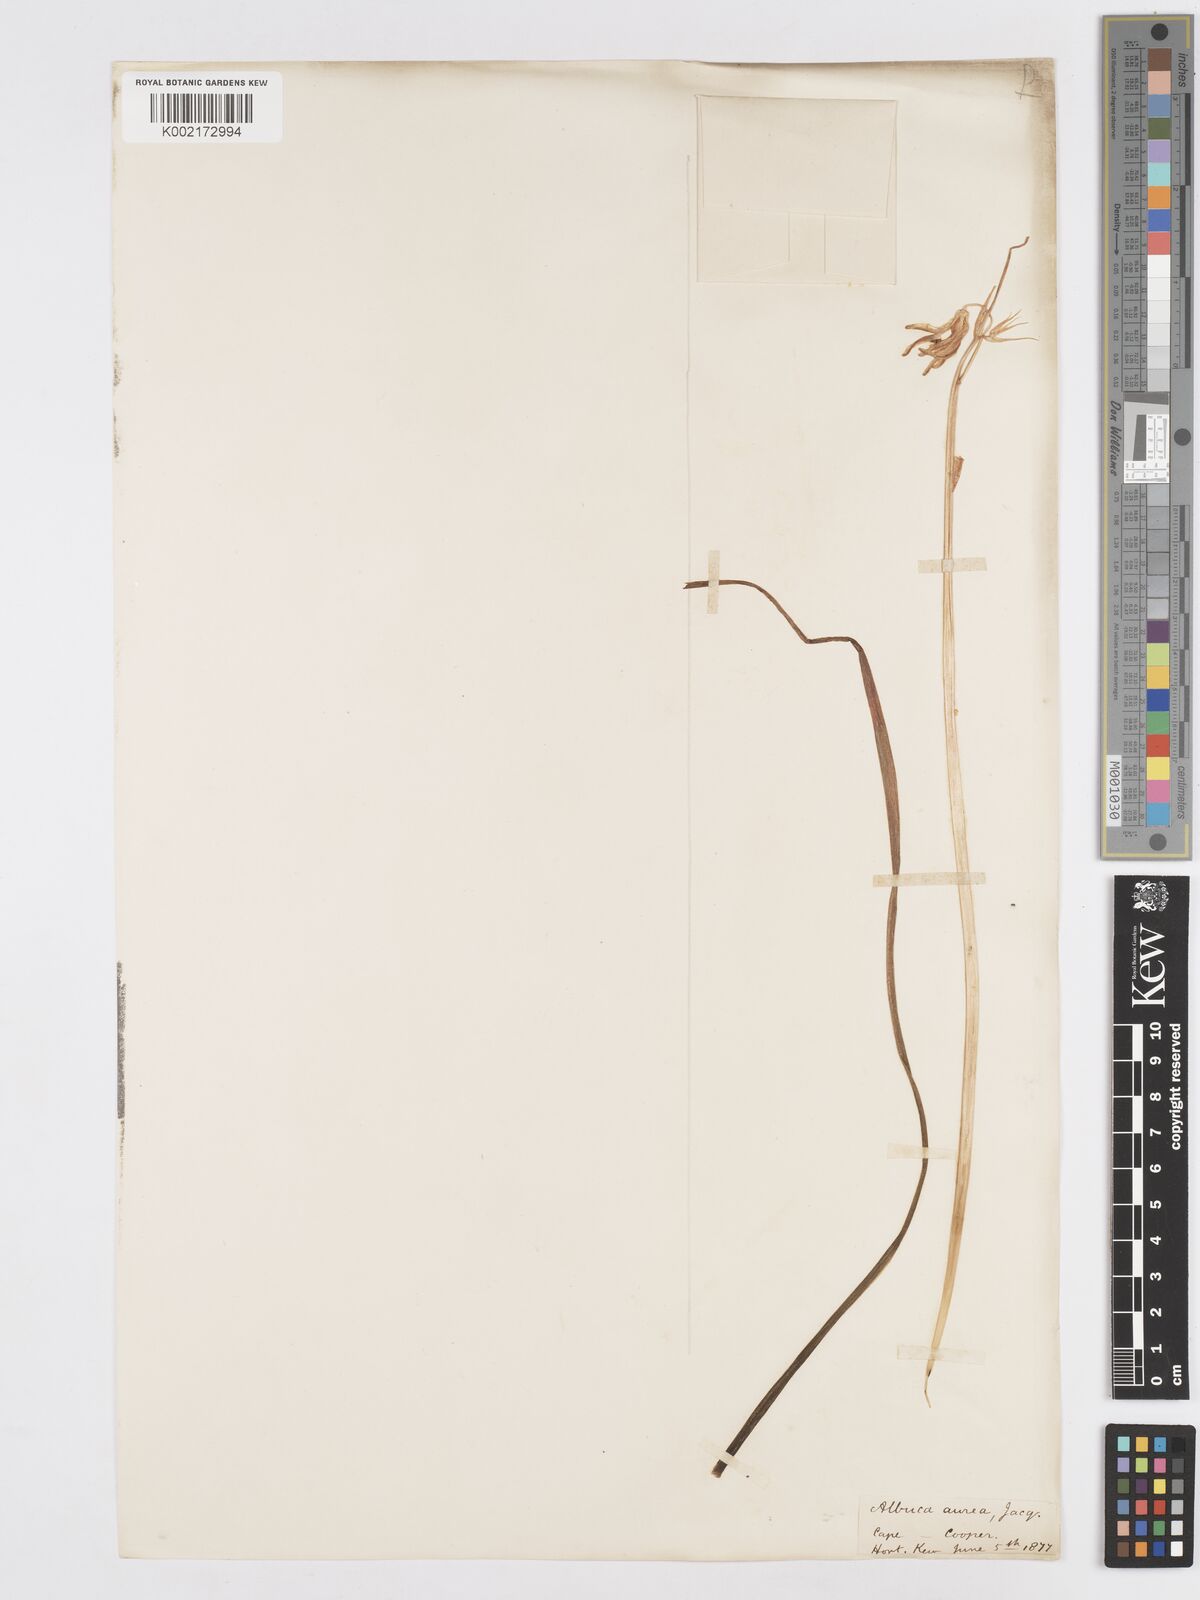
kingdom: Plantae
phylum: Tracheophyta
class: Liliopsida
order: Asparagales
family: Asparagaceae
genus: Albuca
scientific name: Albuca aurea
